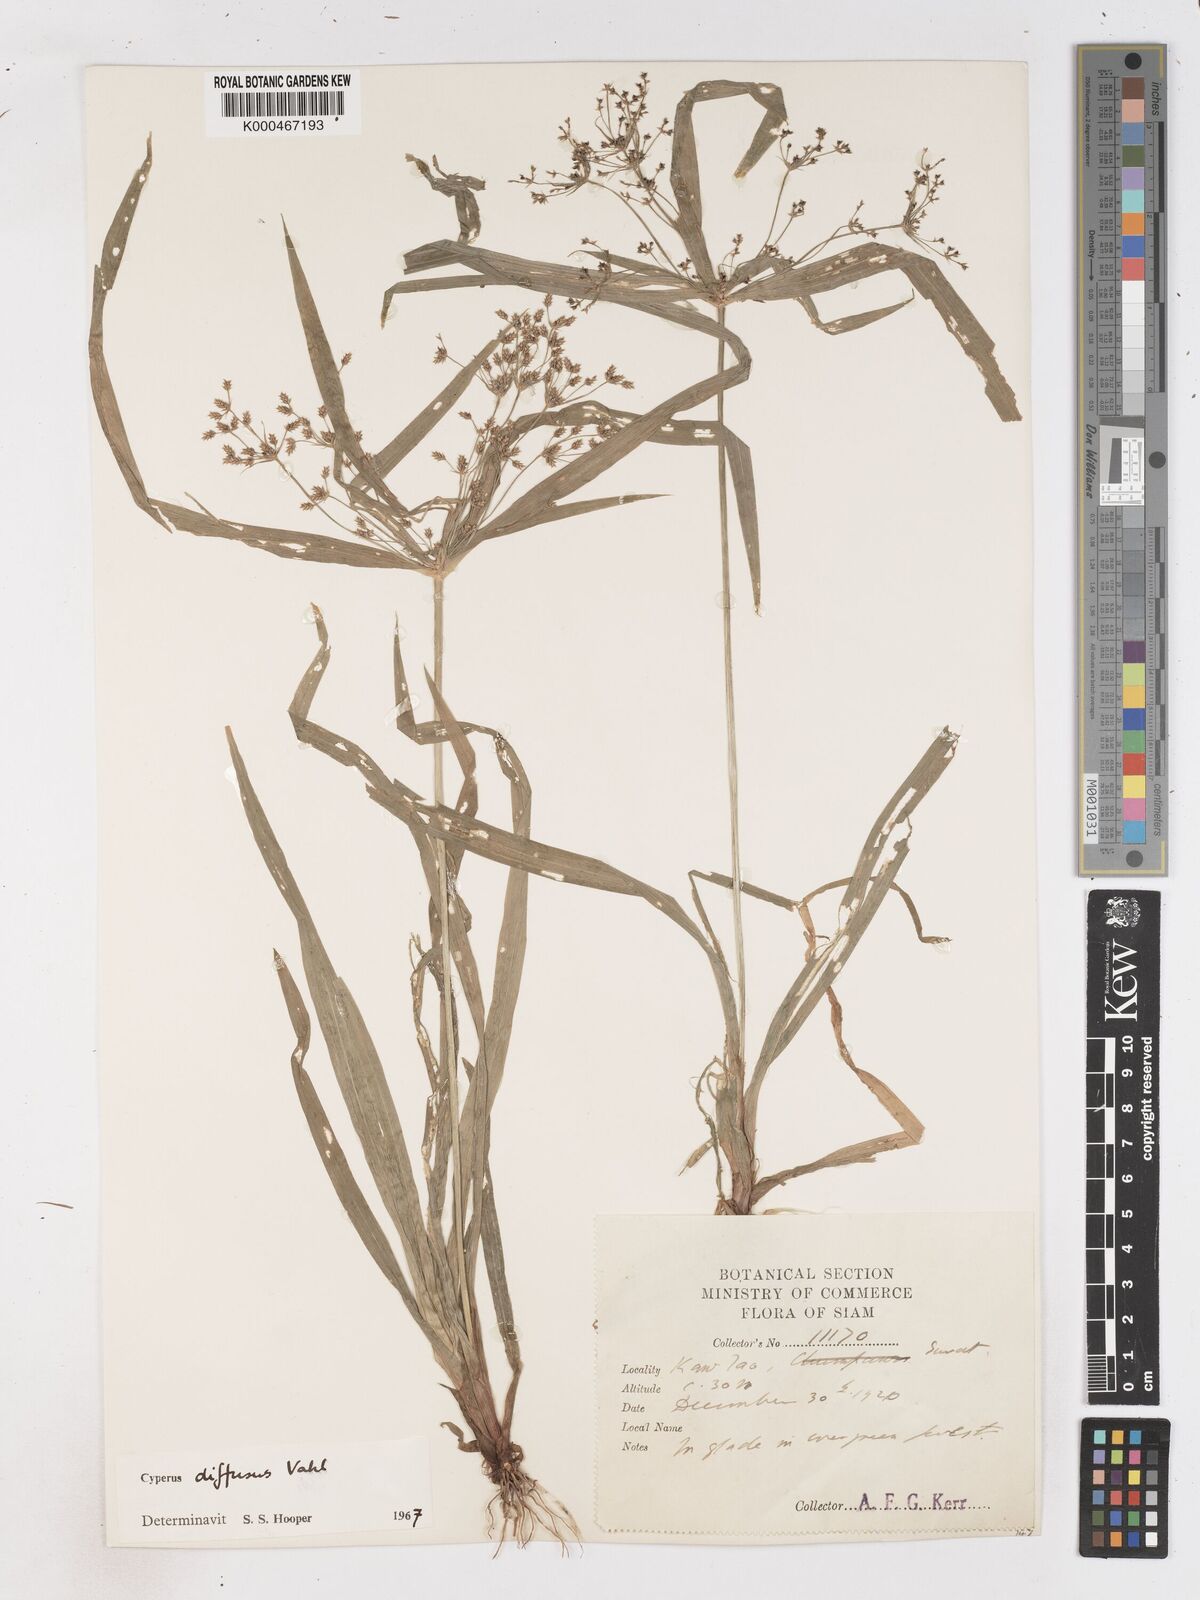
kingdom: Plantae
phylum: Tracheophyta
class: Liliopsida
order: Poales
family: Cyperaceae
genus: Cyperus
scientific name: Cyperus diffusus
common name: Dwarf umbrella grass
